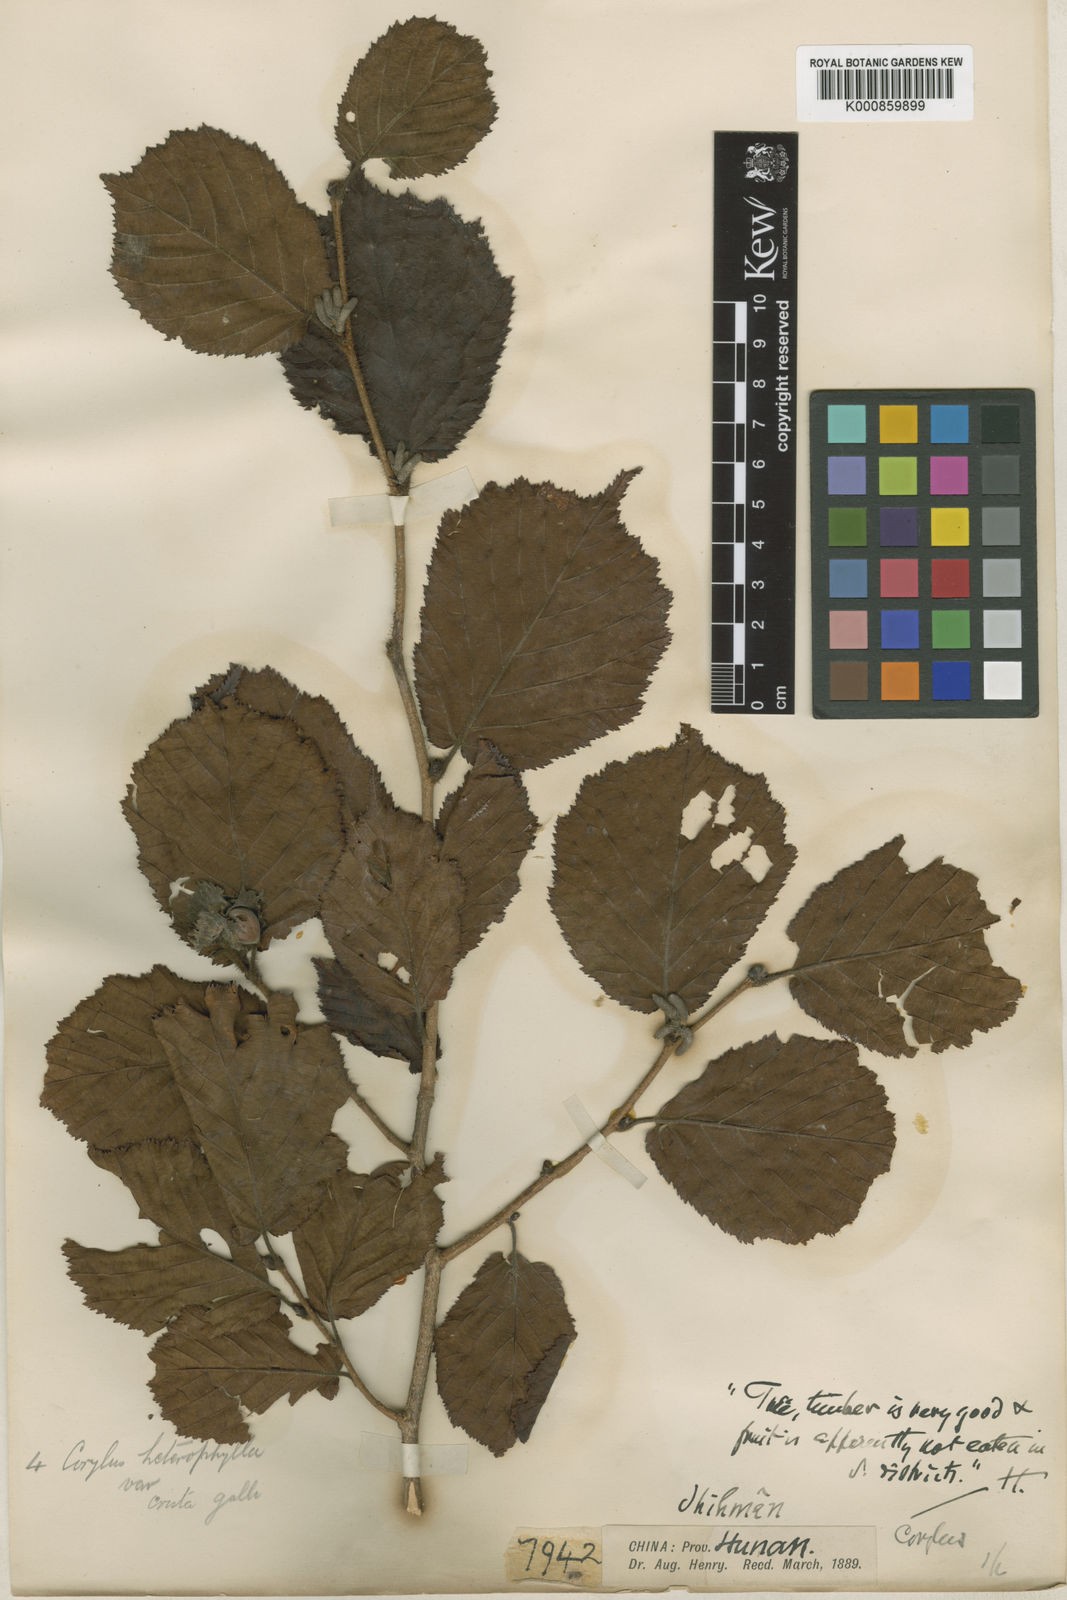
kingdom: Plantae
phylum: Tracheophyta
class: Magnoliopsida
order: Fagales
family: Betulaceae
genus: Corylus
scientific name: Corylus heterophylla
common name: Siberian hazelnut
